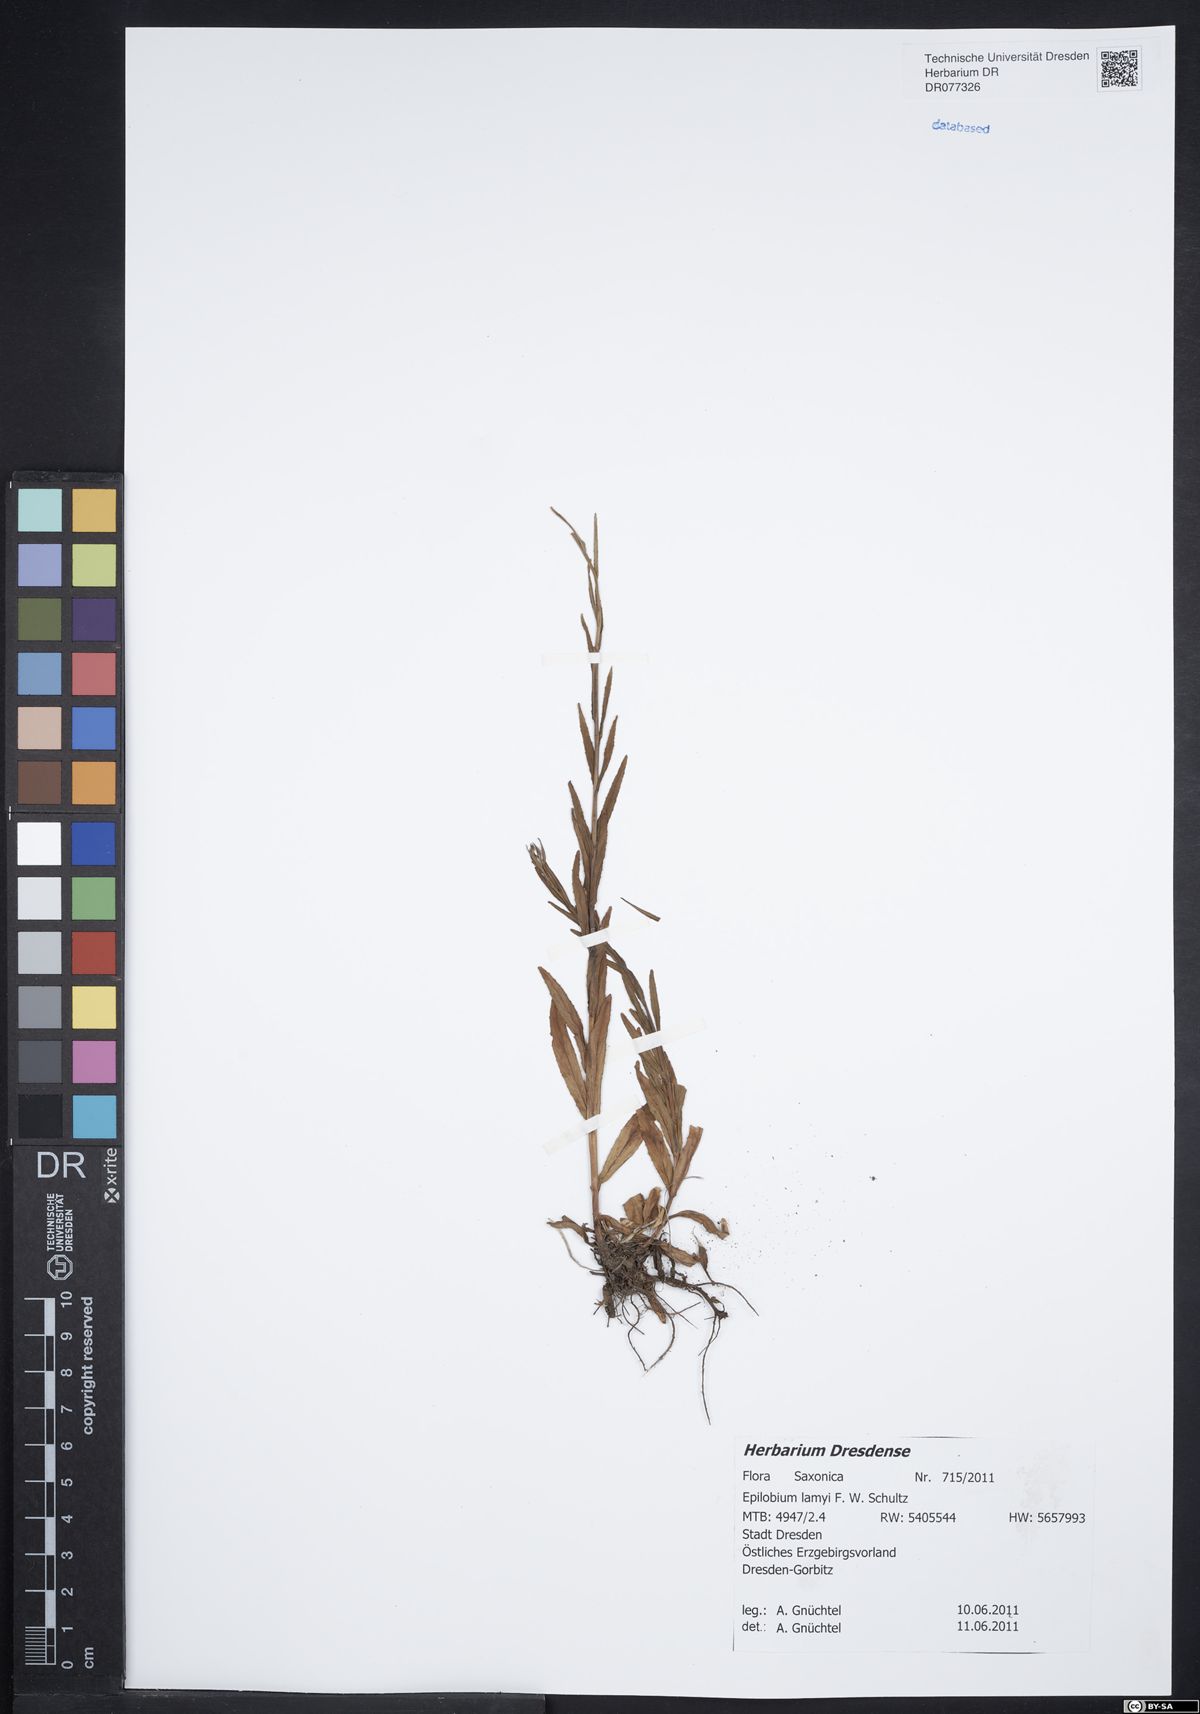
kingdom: Plantae
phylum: Tracheophyta
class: Magnoliopsida
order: Myrtales
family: Onagraceae
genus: Epilobium
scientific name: Epilobium lamyi
